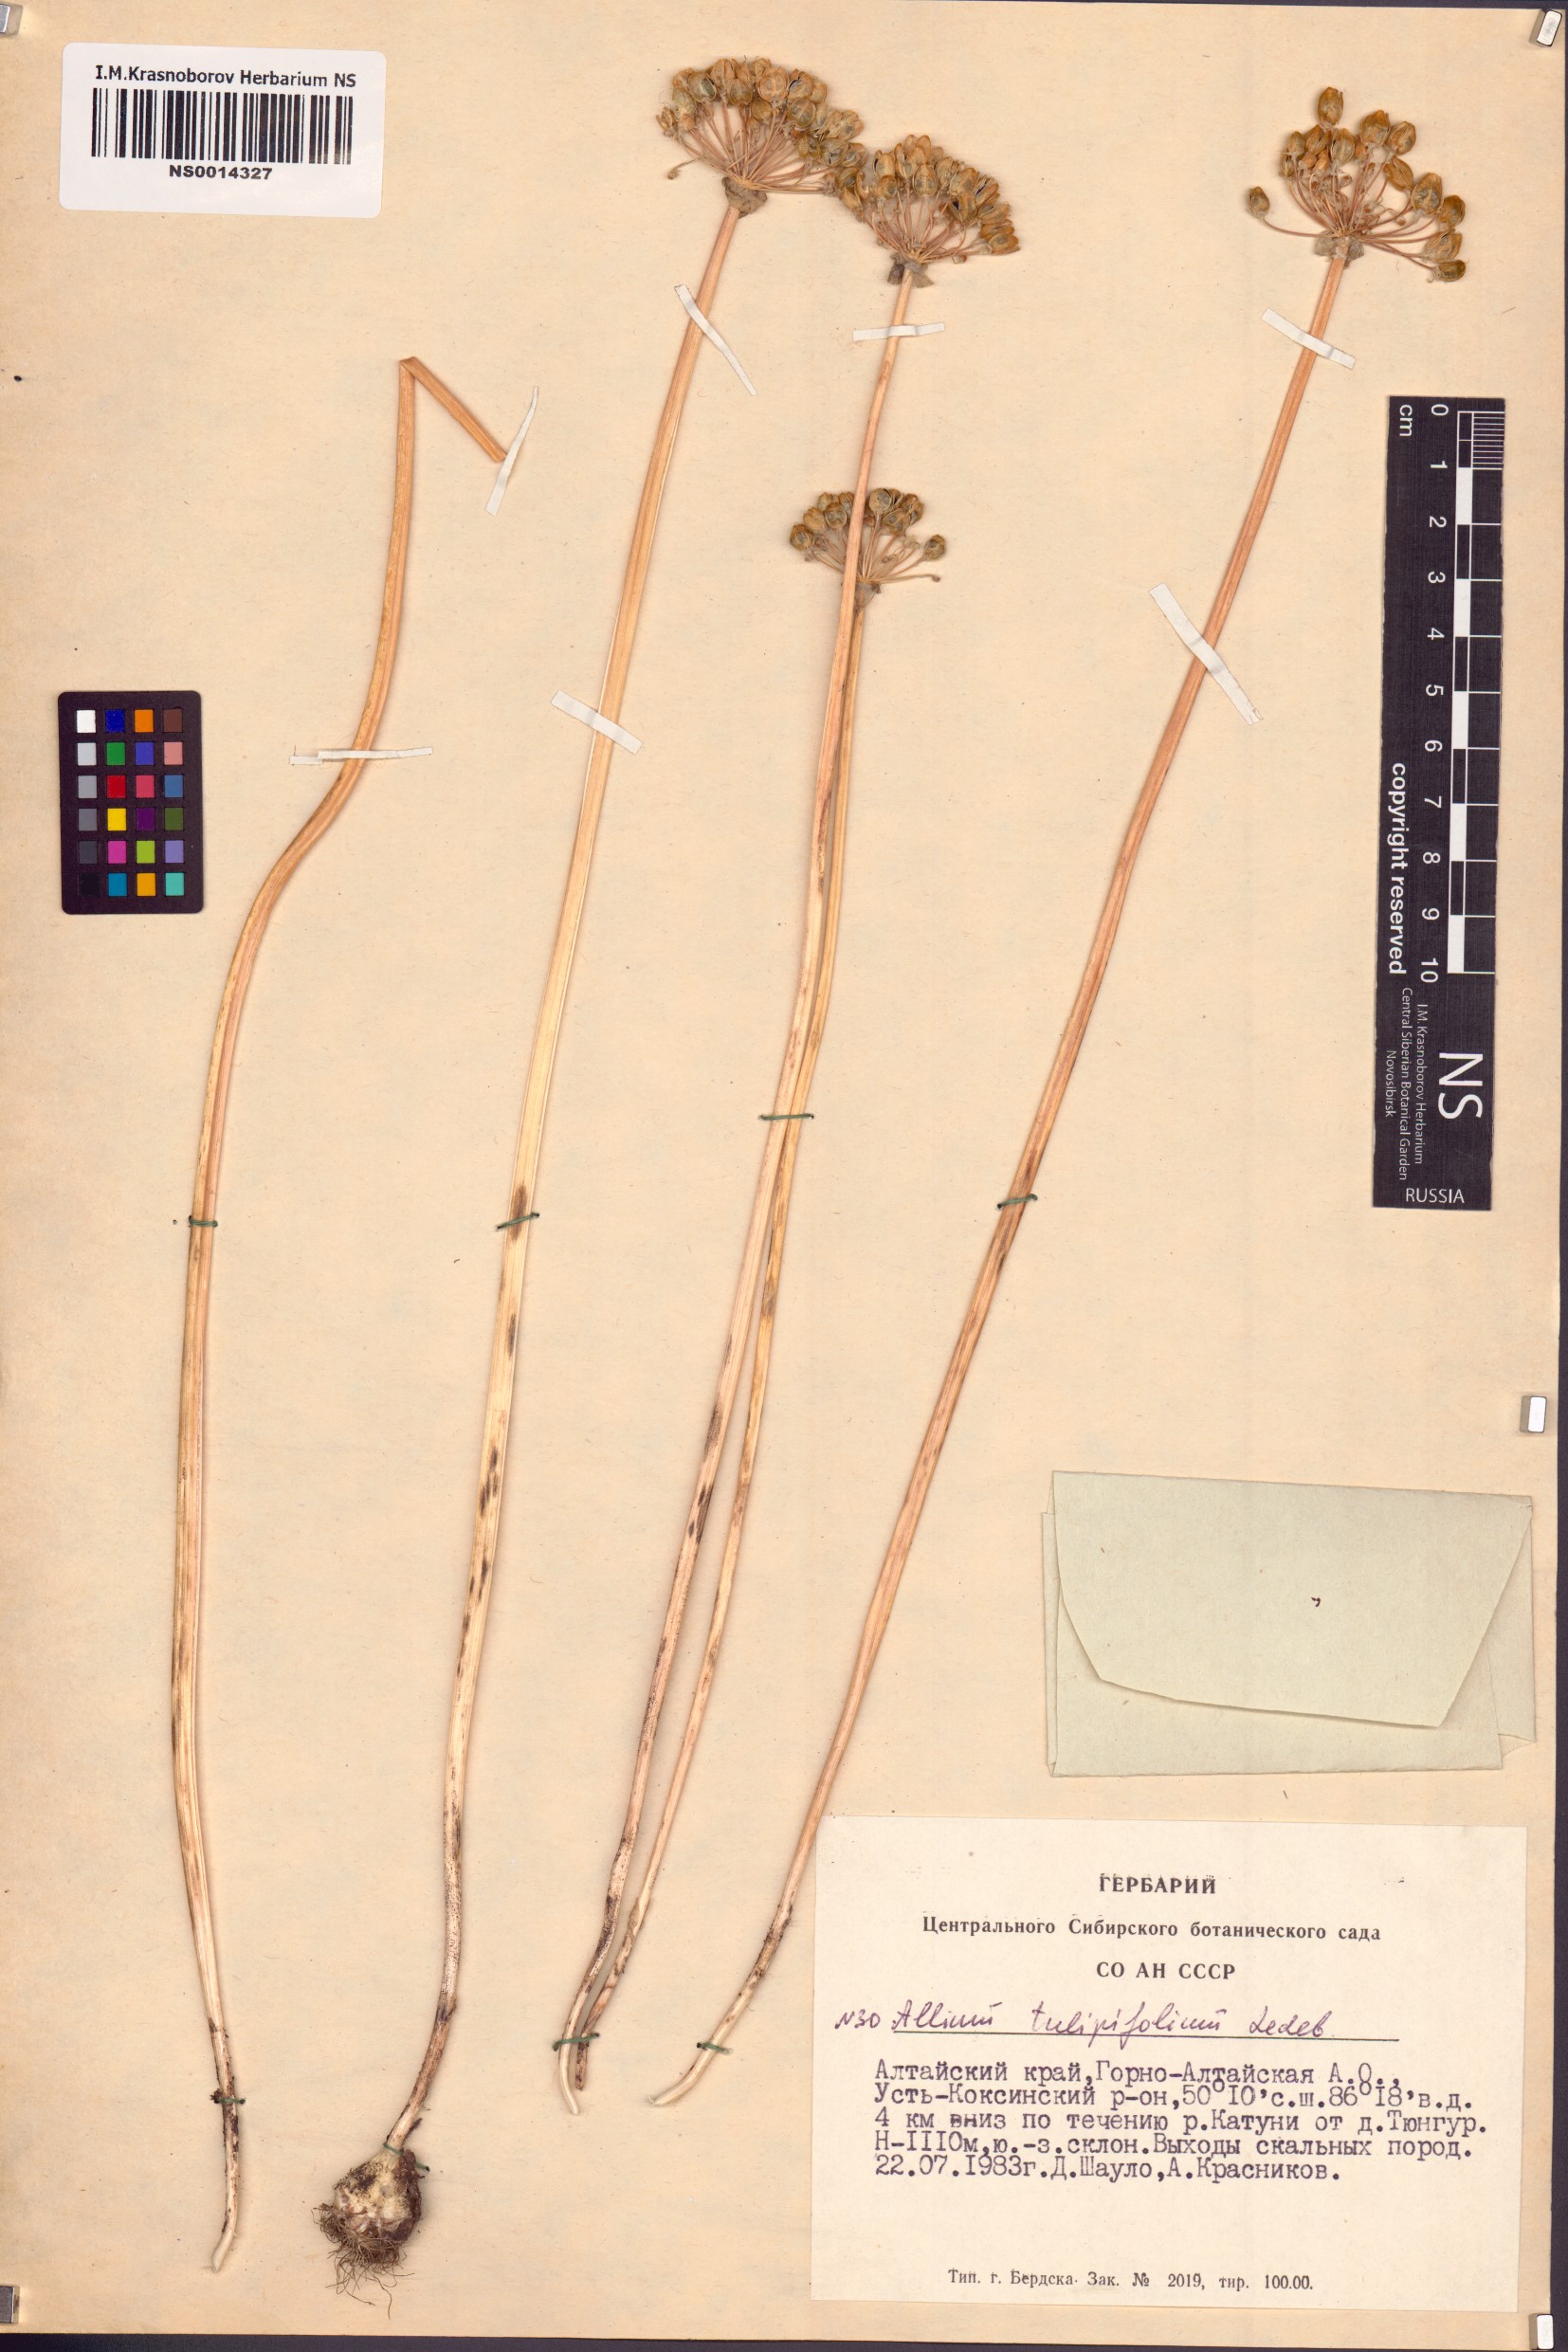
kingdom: Plantae
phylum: Tracheophyta
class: Liliopsida
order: Asparagales
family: Amaryllidaceae
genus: Allium
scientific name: Allium tulipifolium
